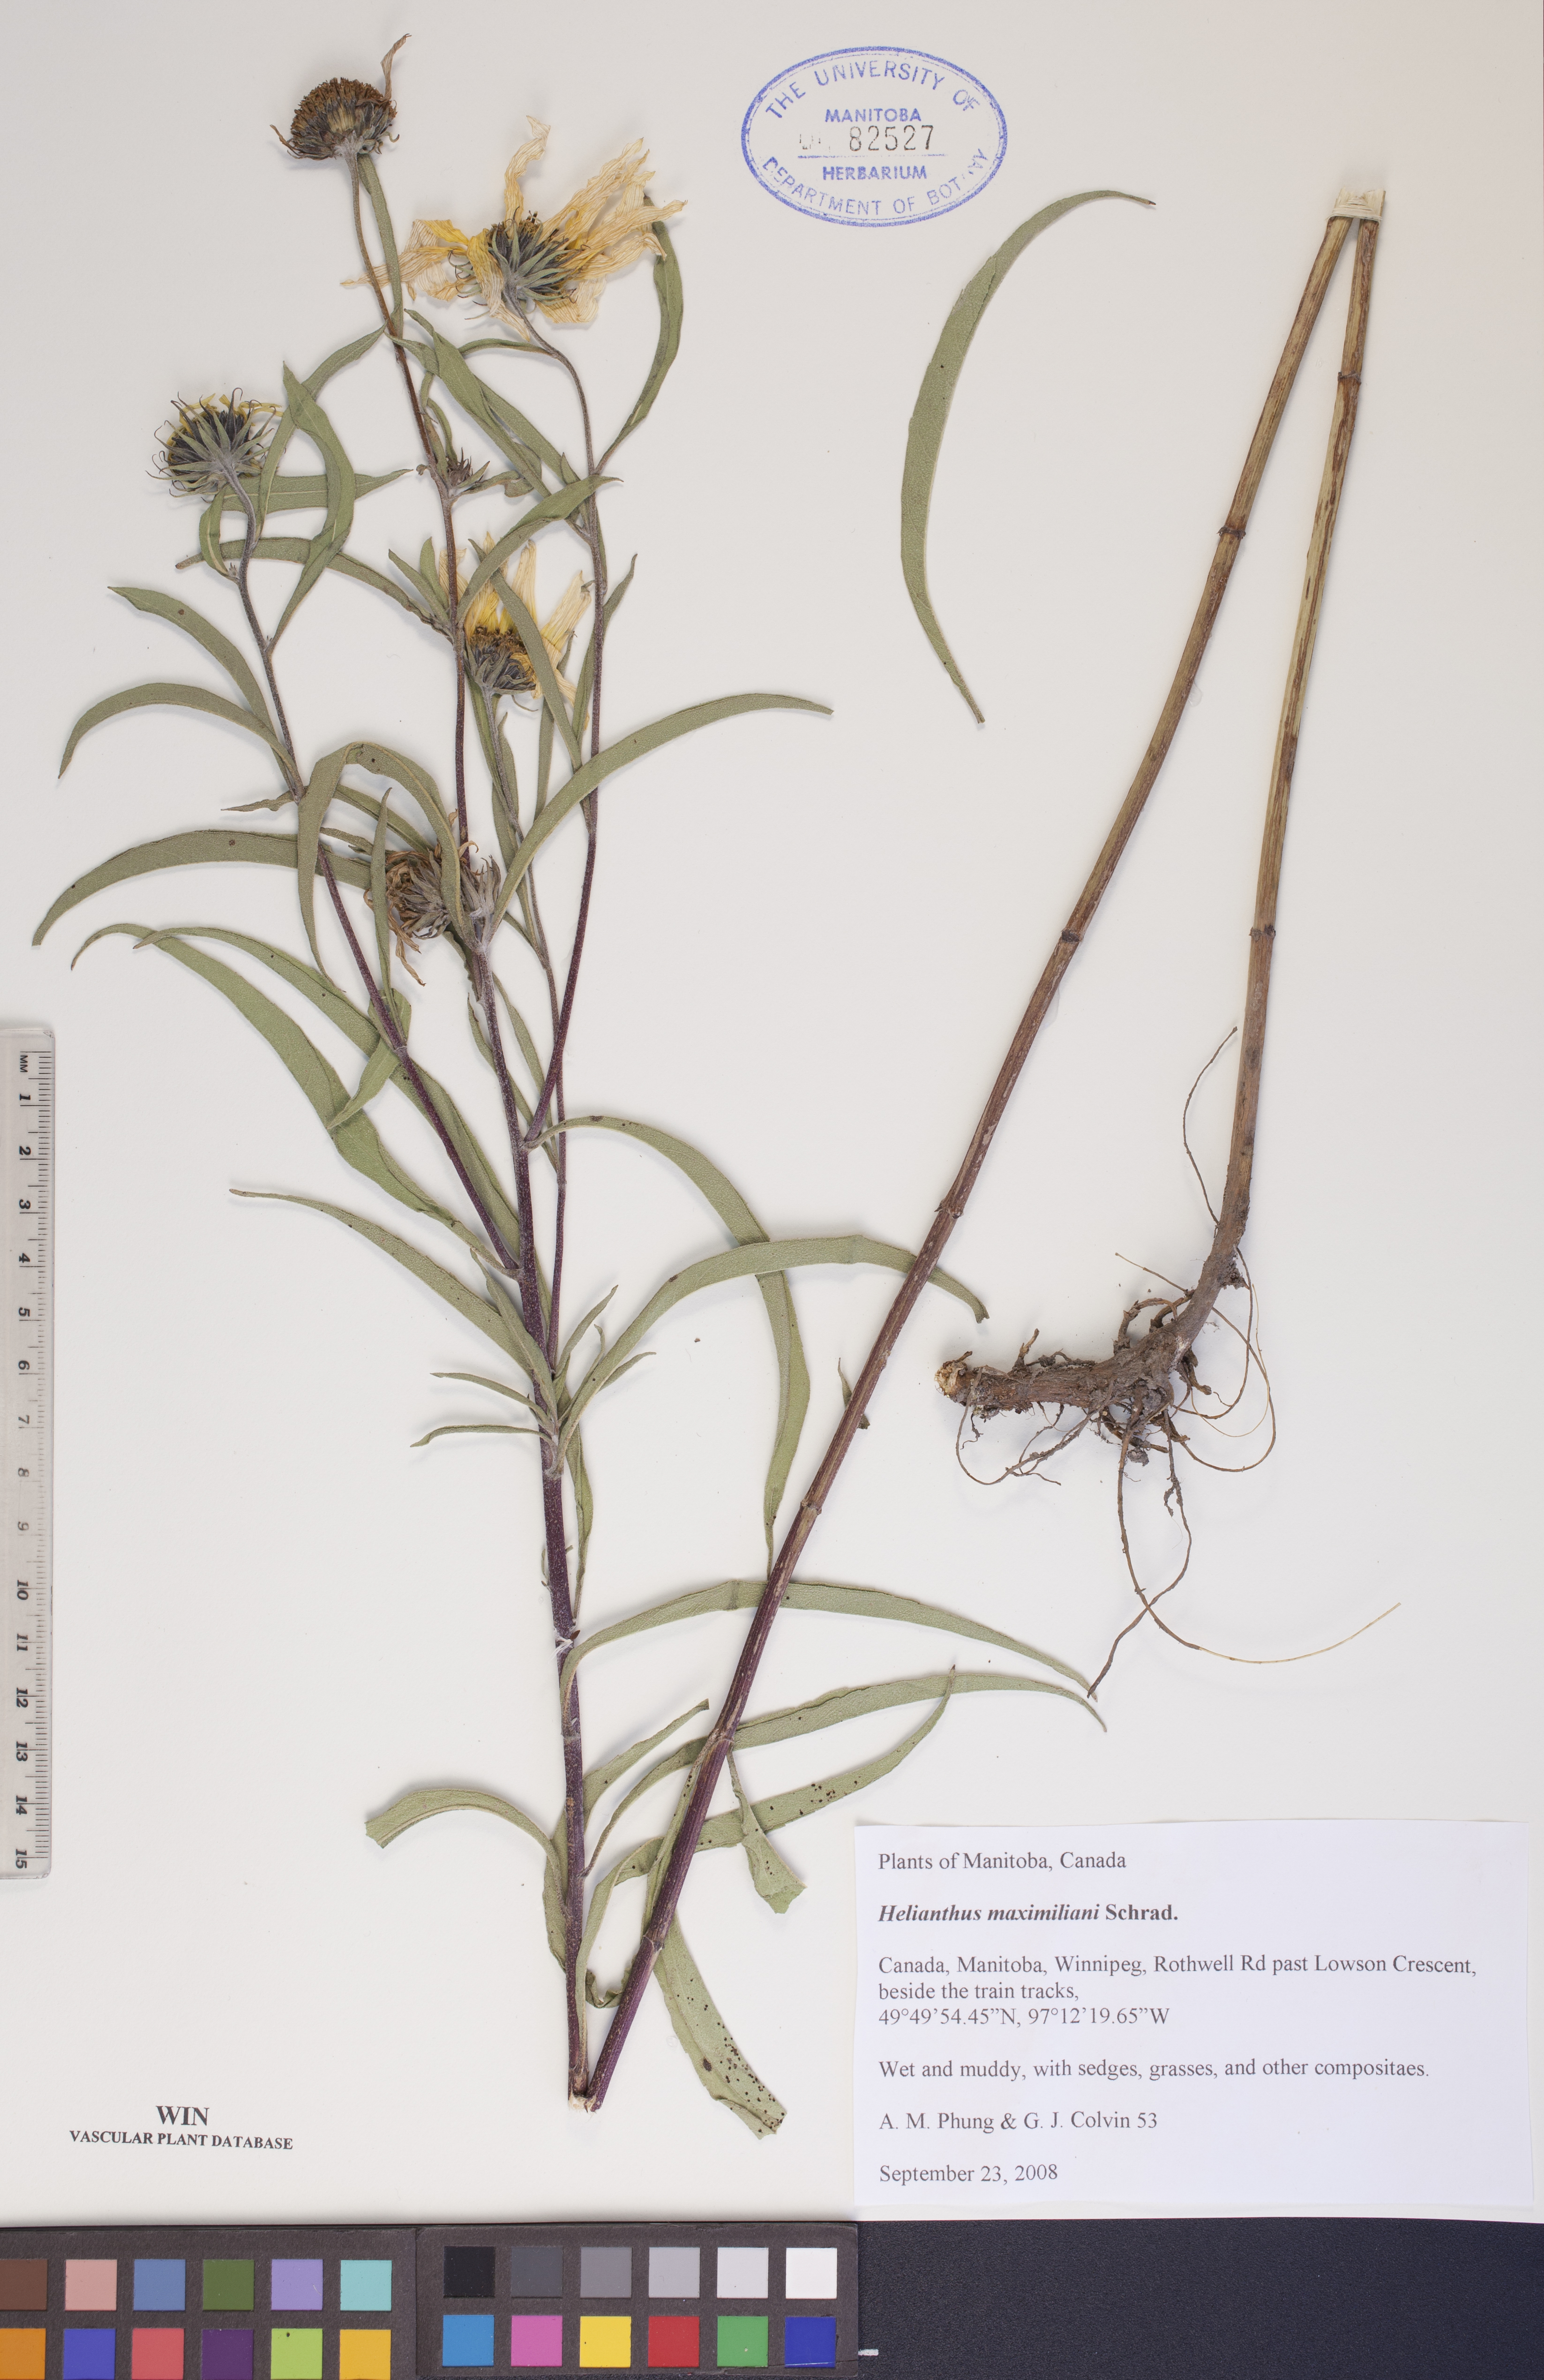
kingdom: Plantae
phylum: Tracheophyta
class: Magnoliopsida
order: Asterales
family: Asteraceae
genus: Helianthus
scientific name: Helianthus maximiliani
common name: Maximilian's sunflower
